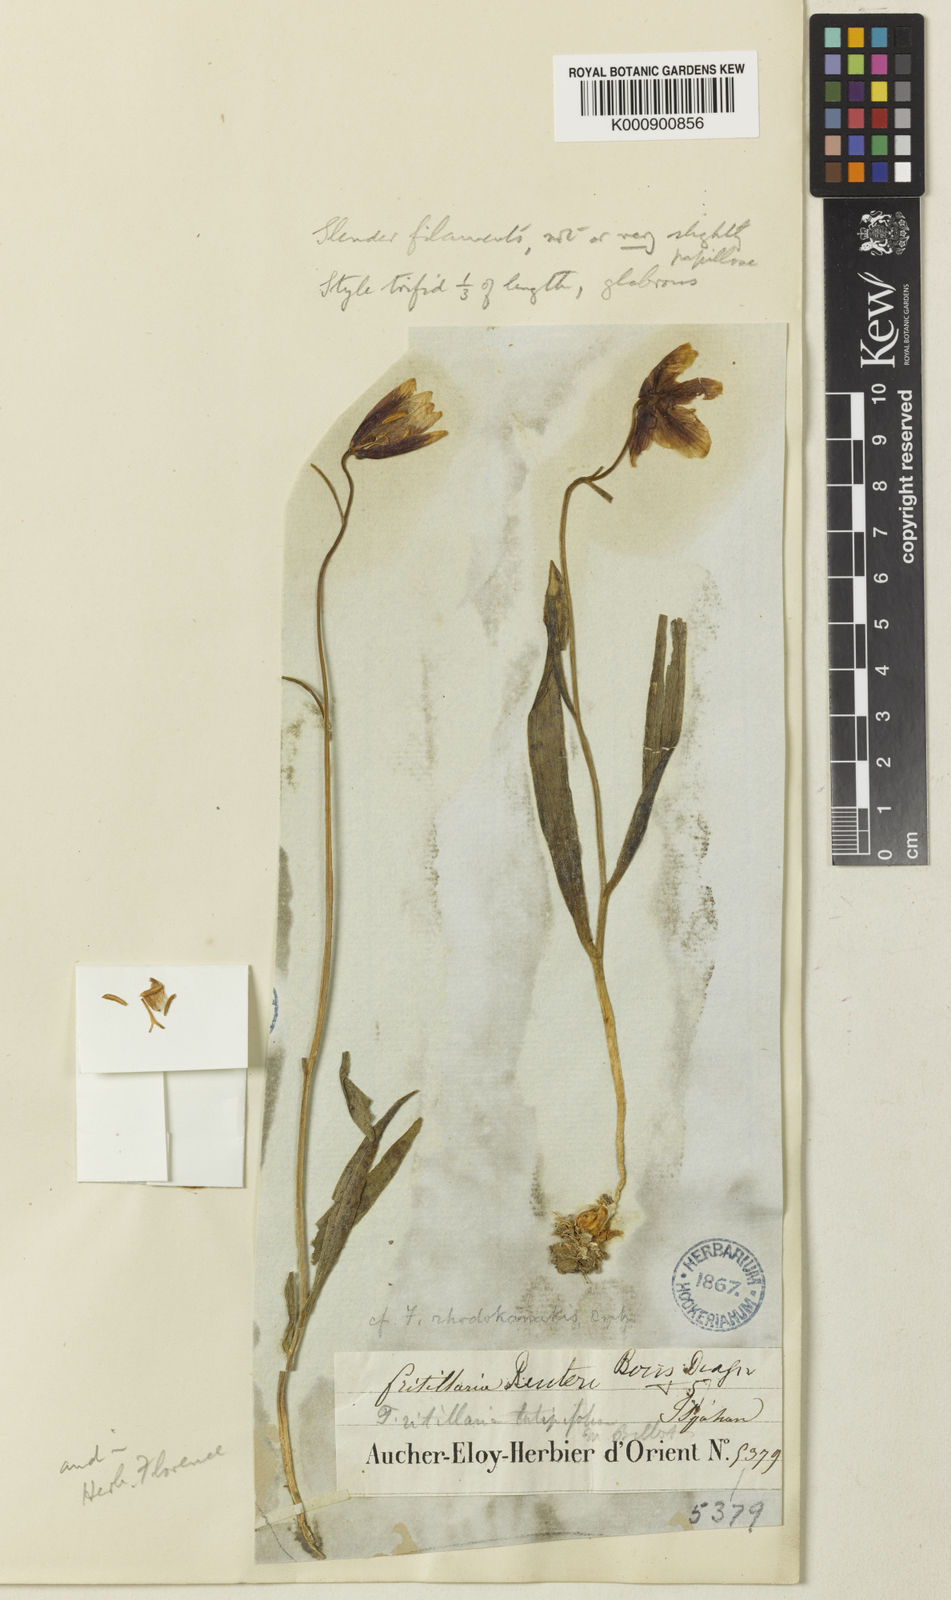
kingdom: Plantae
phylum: Tracheophyta
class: Liliopsida
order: Liliales
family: Liliaceae
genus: Fritillaria
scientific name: Fritillaria reuteri
